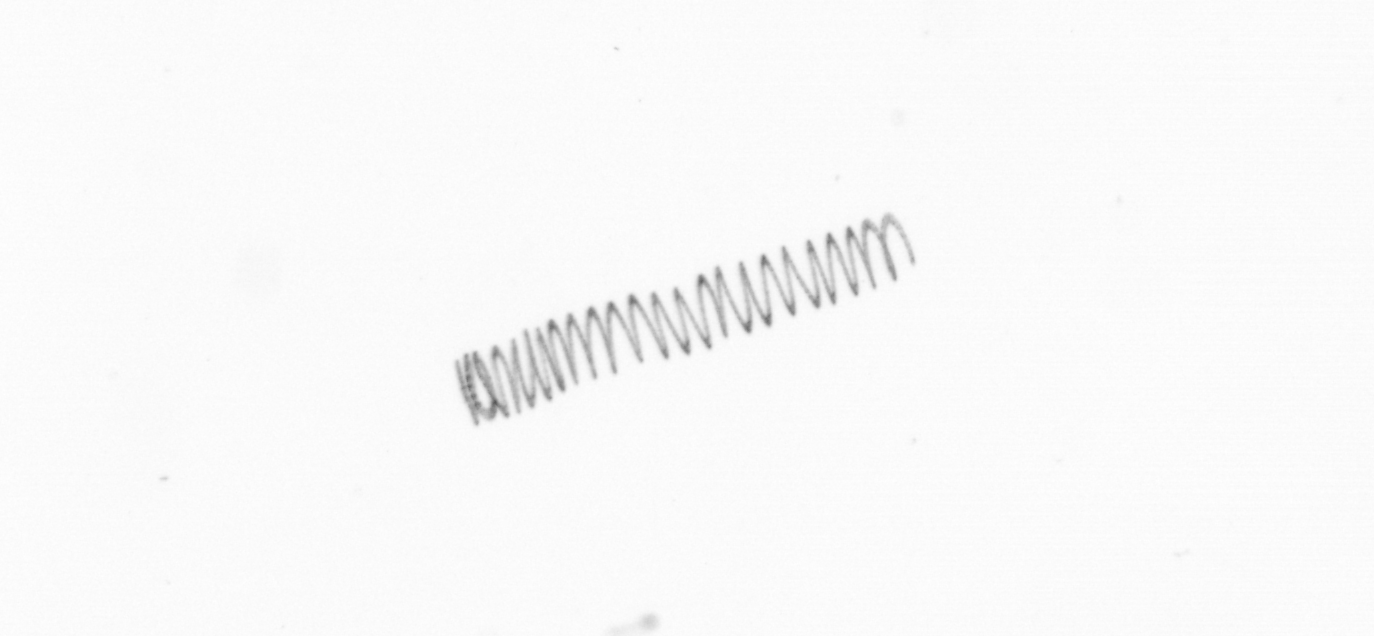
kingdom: Chromista
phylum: Ochrophyta
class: Bacillariophyceae
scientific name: Bacillariophyceae
